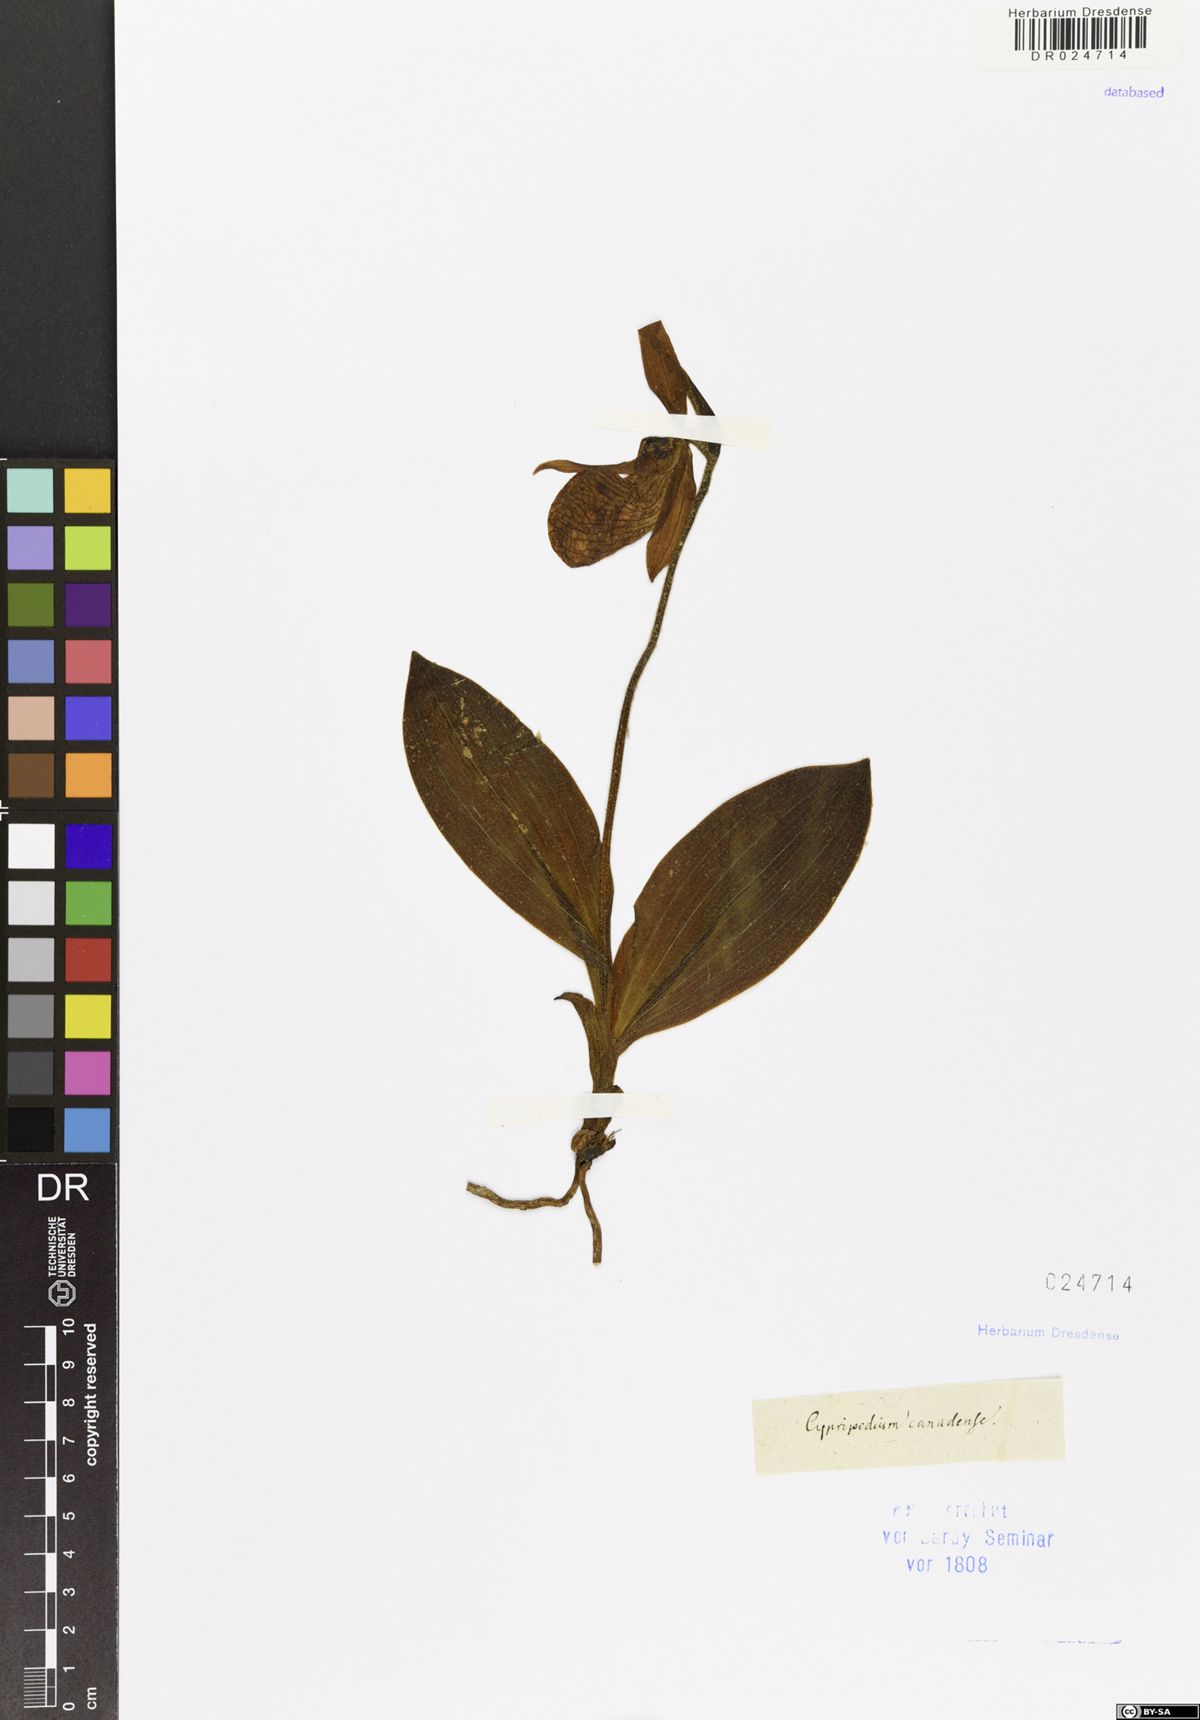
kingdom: Plantae
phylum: Tracheophyta
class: Liliopsida
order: Asparagales
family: Orchidaceae
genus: Cypripedium
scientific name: Cypripedium reginae
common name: Queen lady's-slipper
